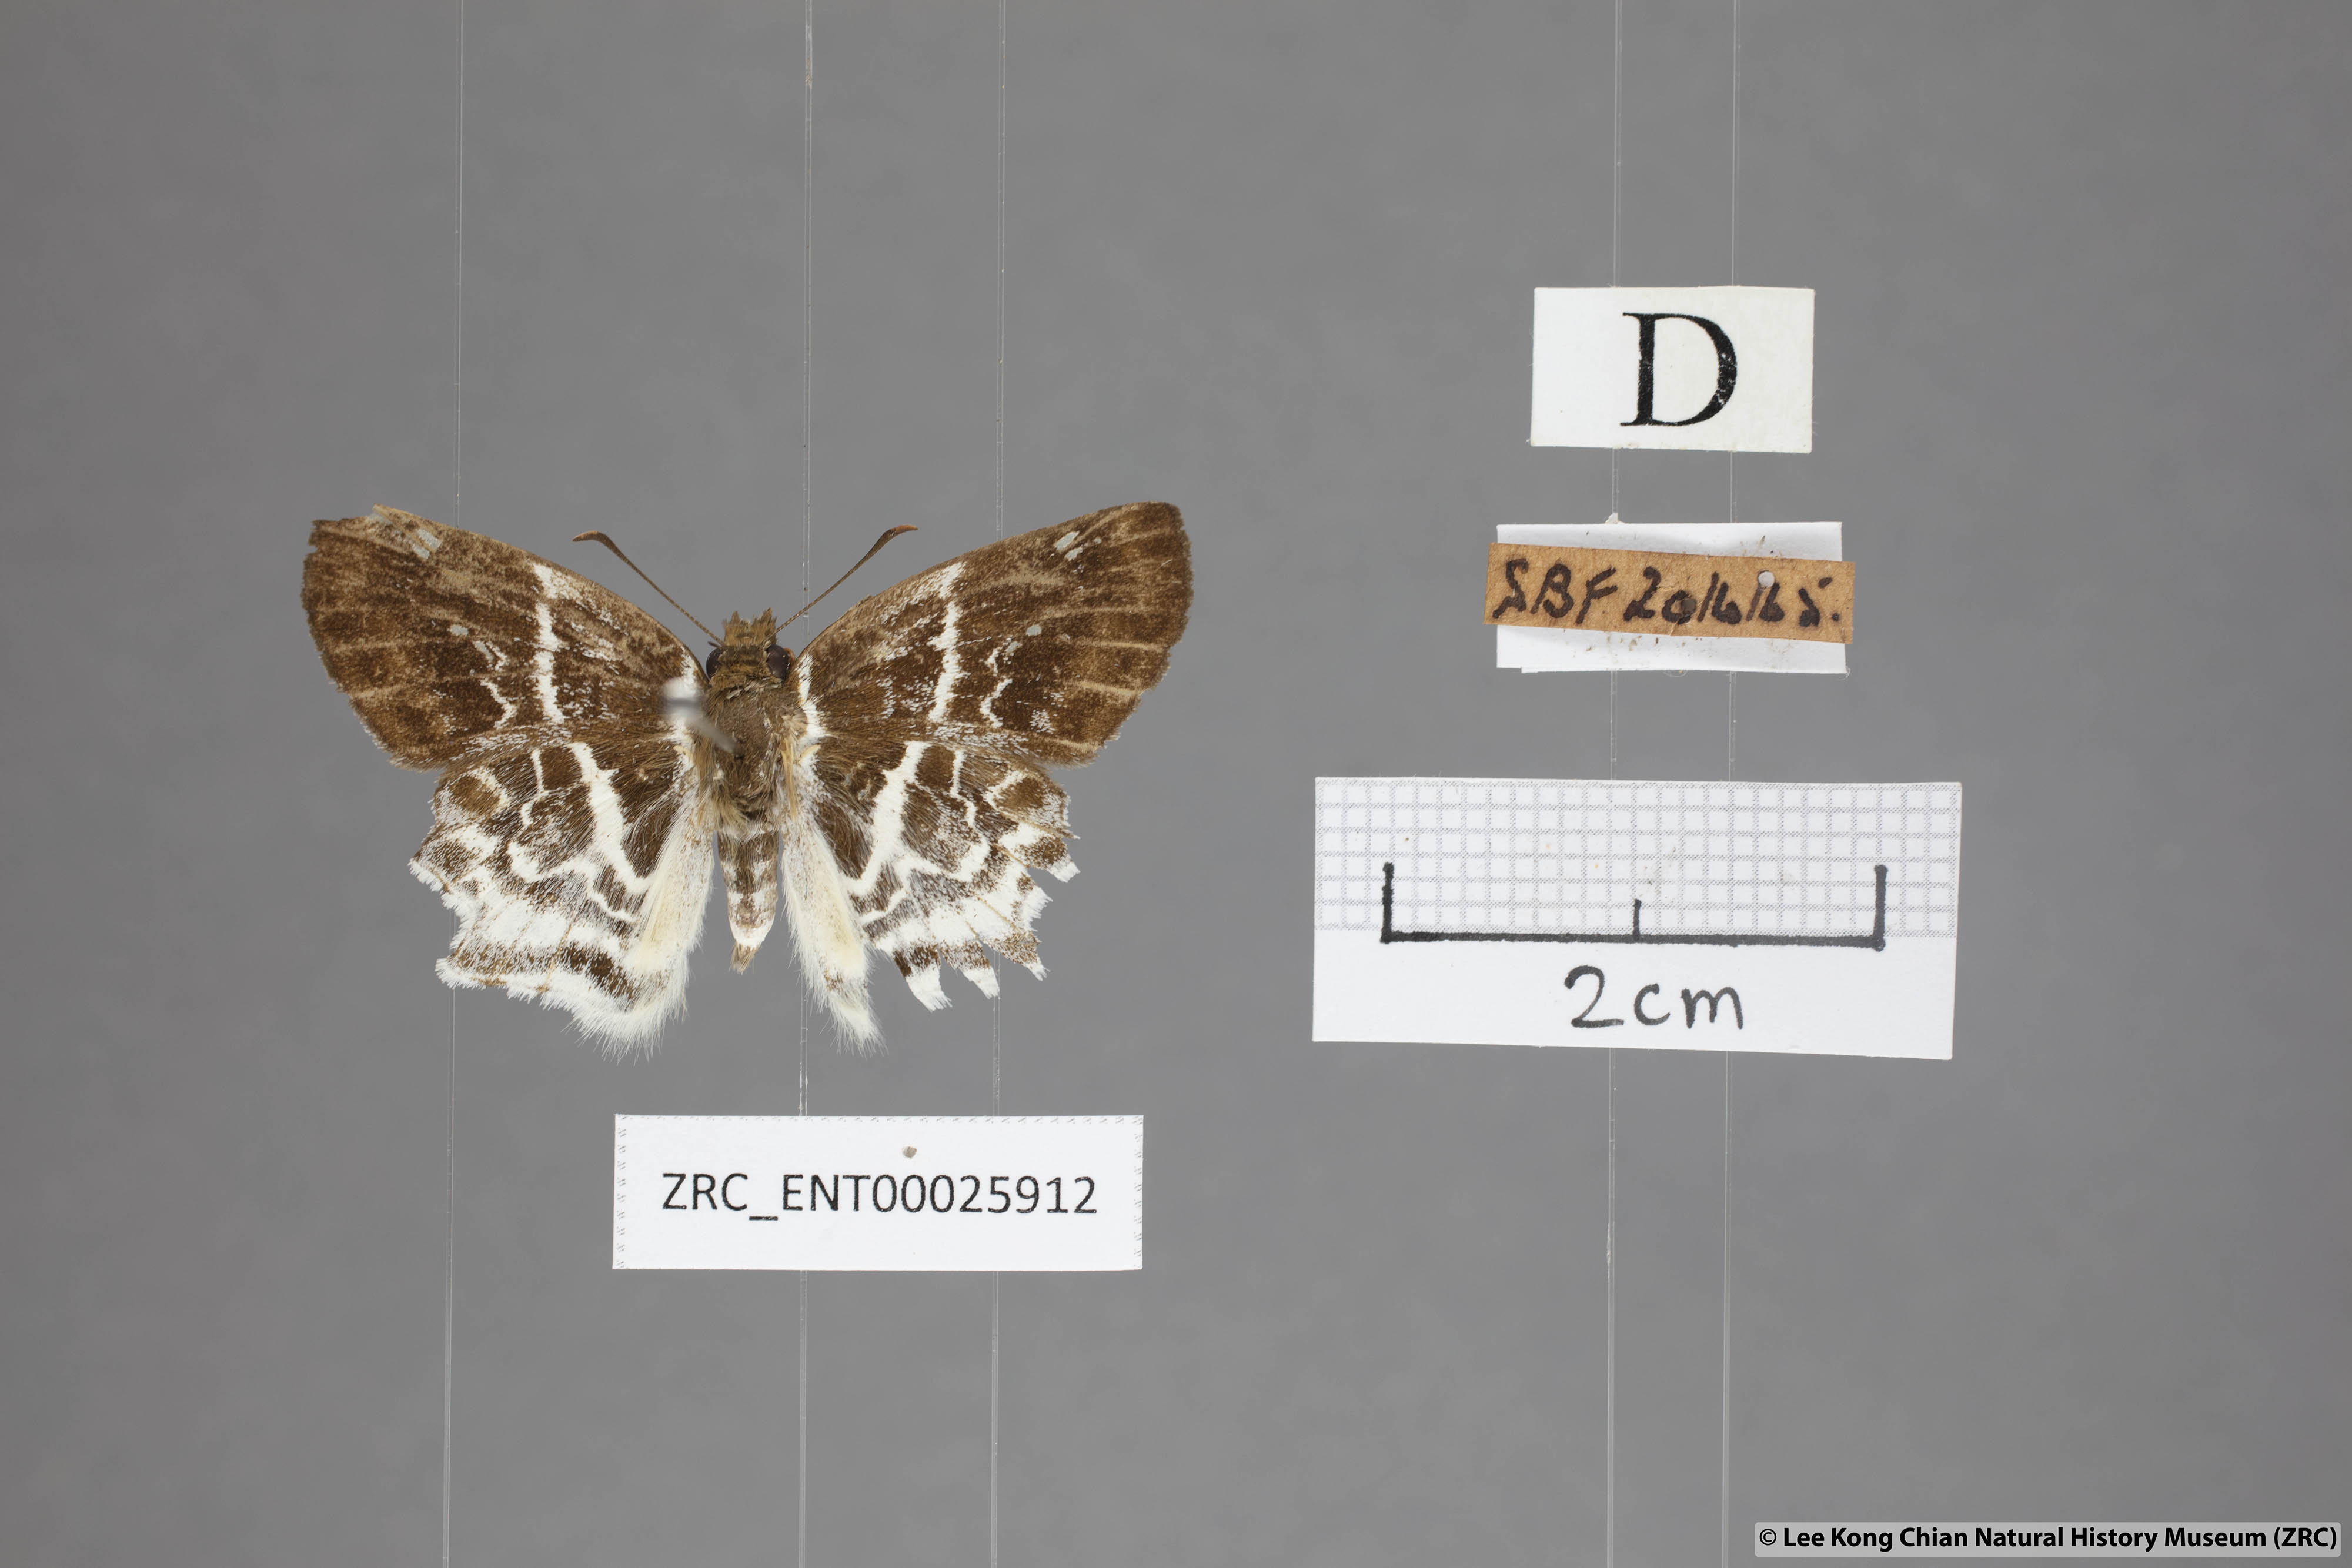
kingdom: Animalia
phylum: Arthropoda
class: Insecta
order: Lepidoptera
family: Hesperiidae
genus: Odontoptilum
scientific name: Odontoptilum pygela
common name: Banded angle
